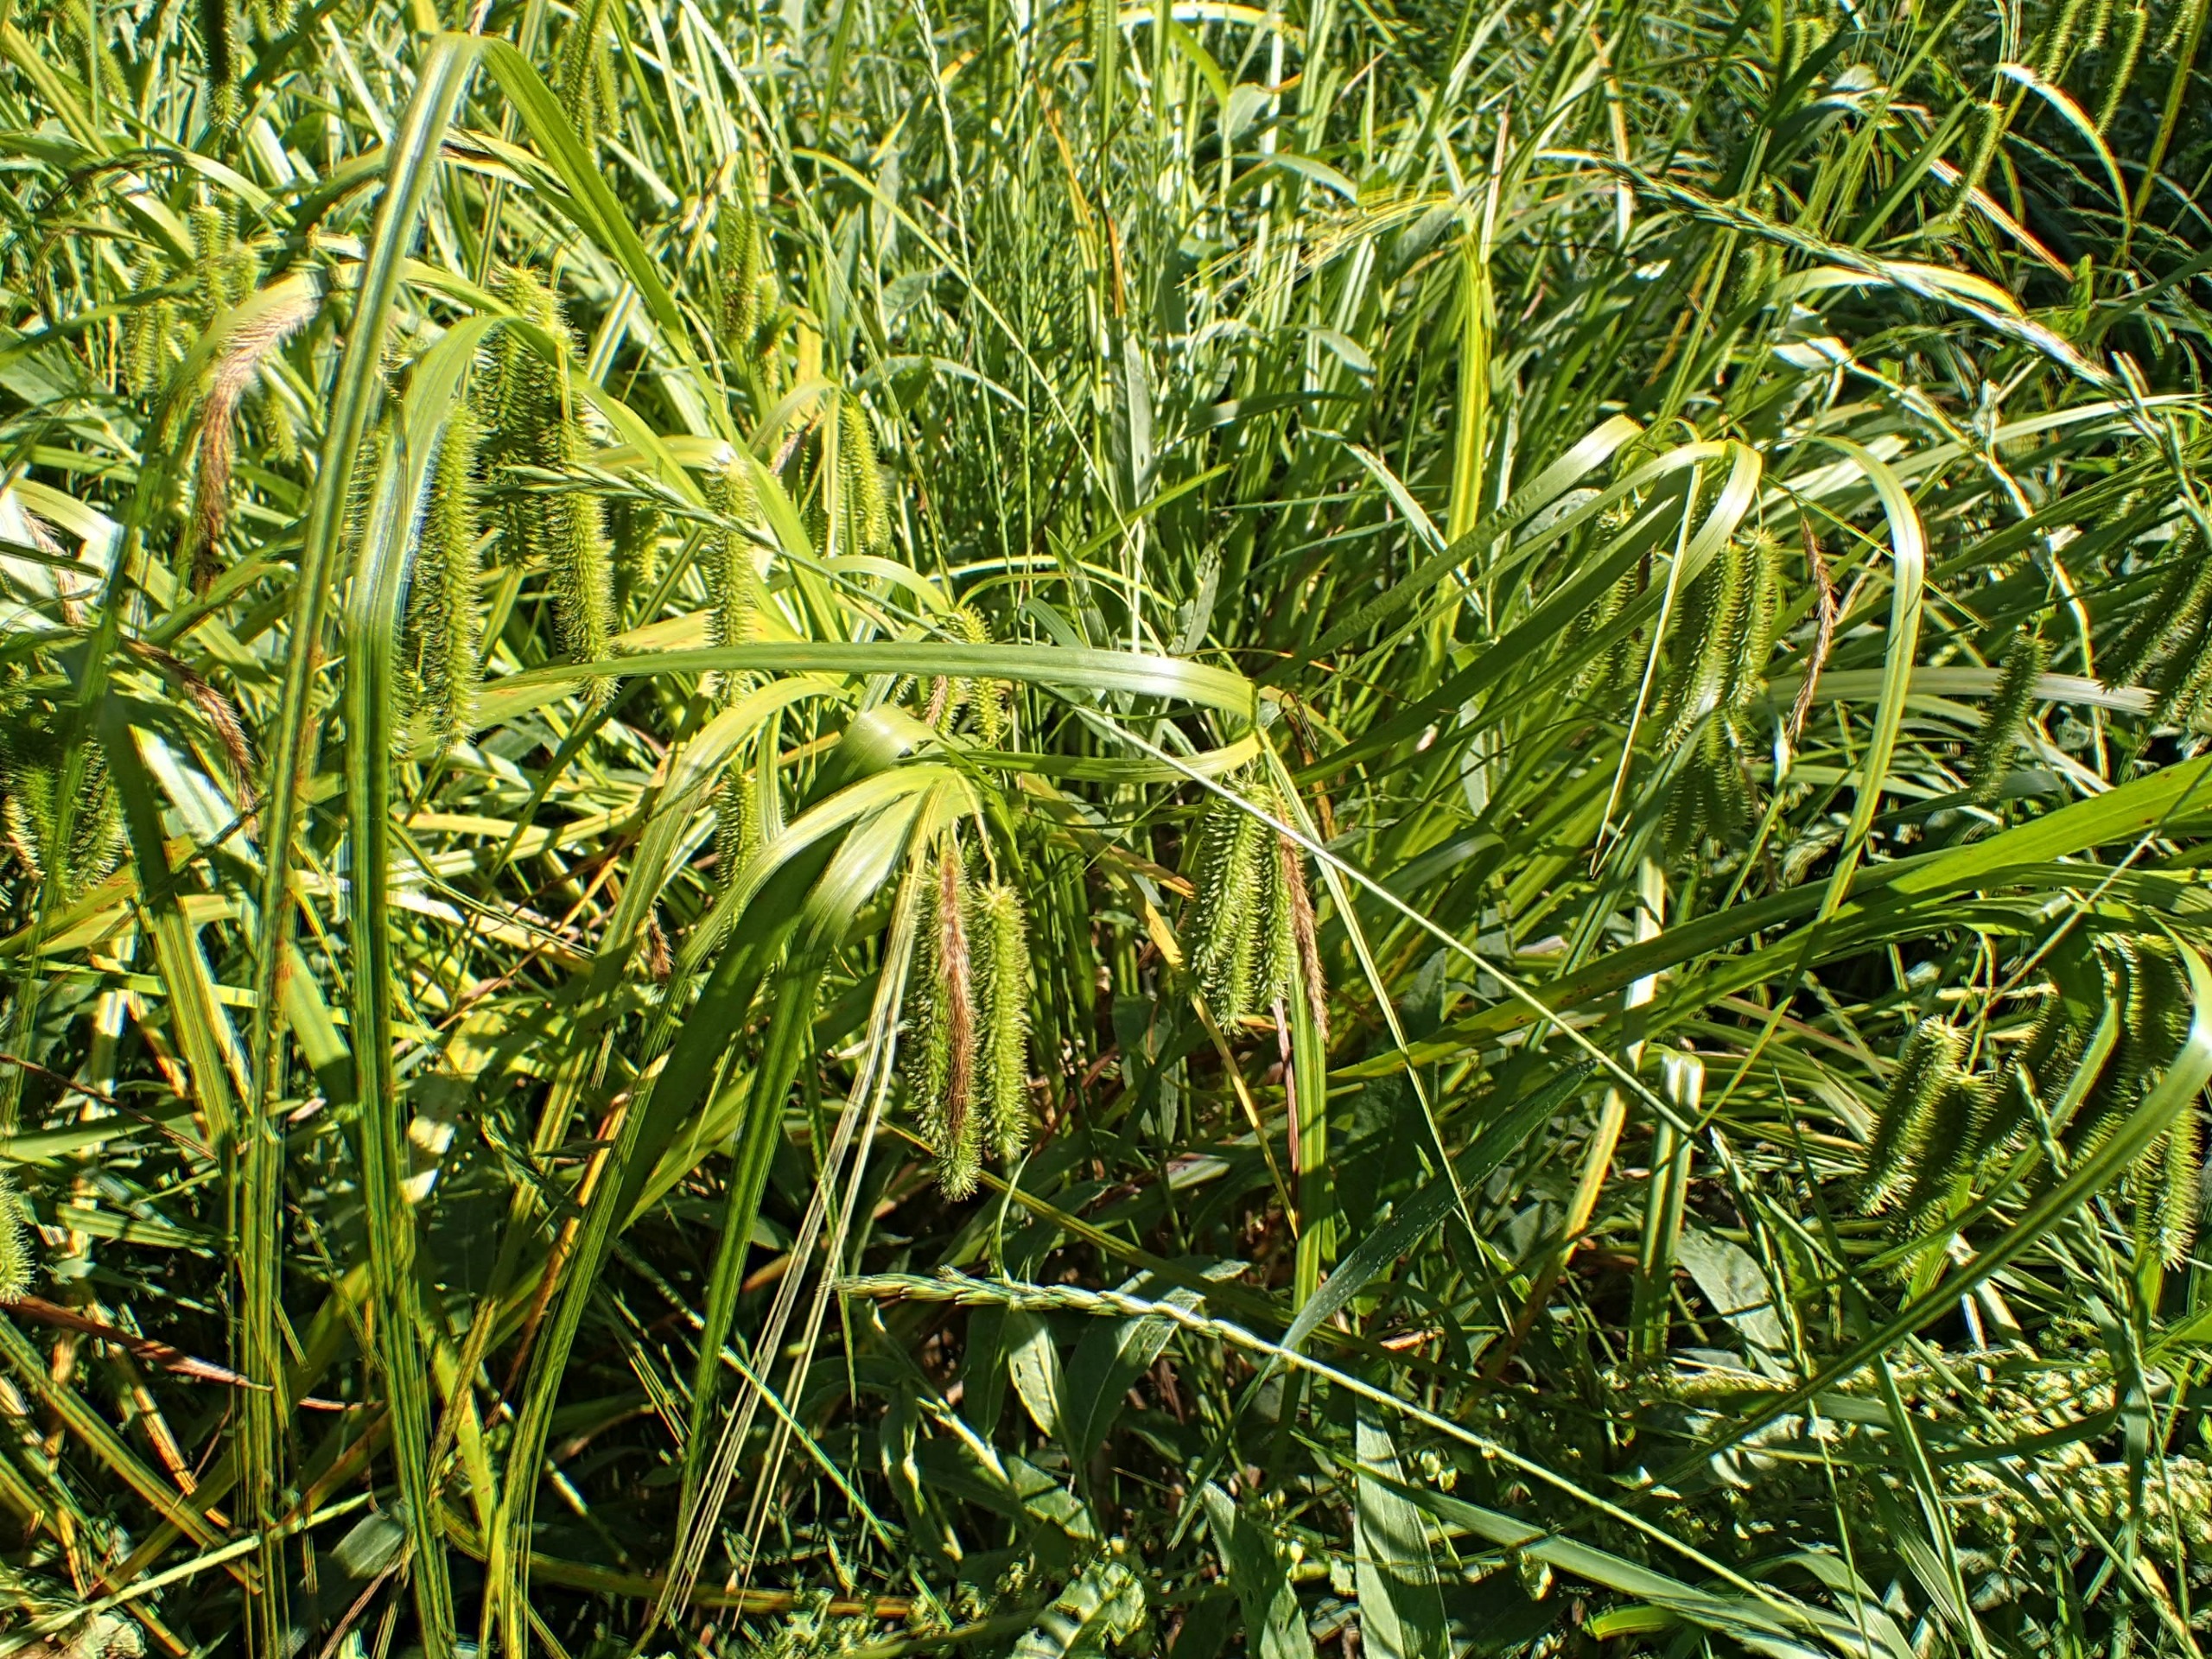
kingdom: Plantae
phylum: Tracheophyta
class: Liliopsida
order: Poales
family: Cyperaceae
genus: Carex
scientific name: Carex pseudocyperus
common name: Knippe-star
